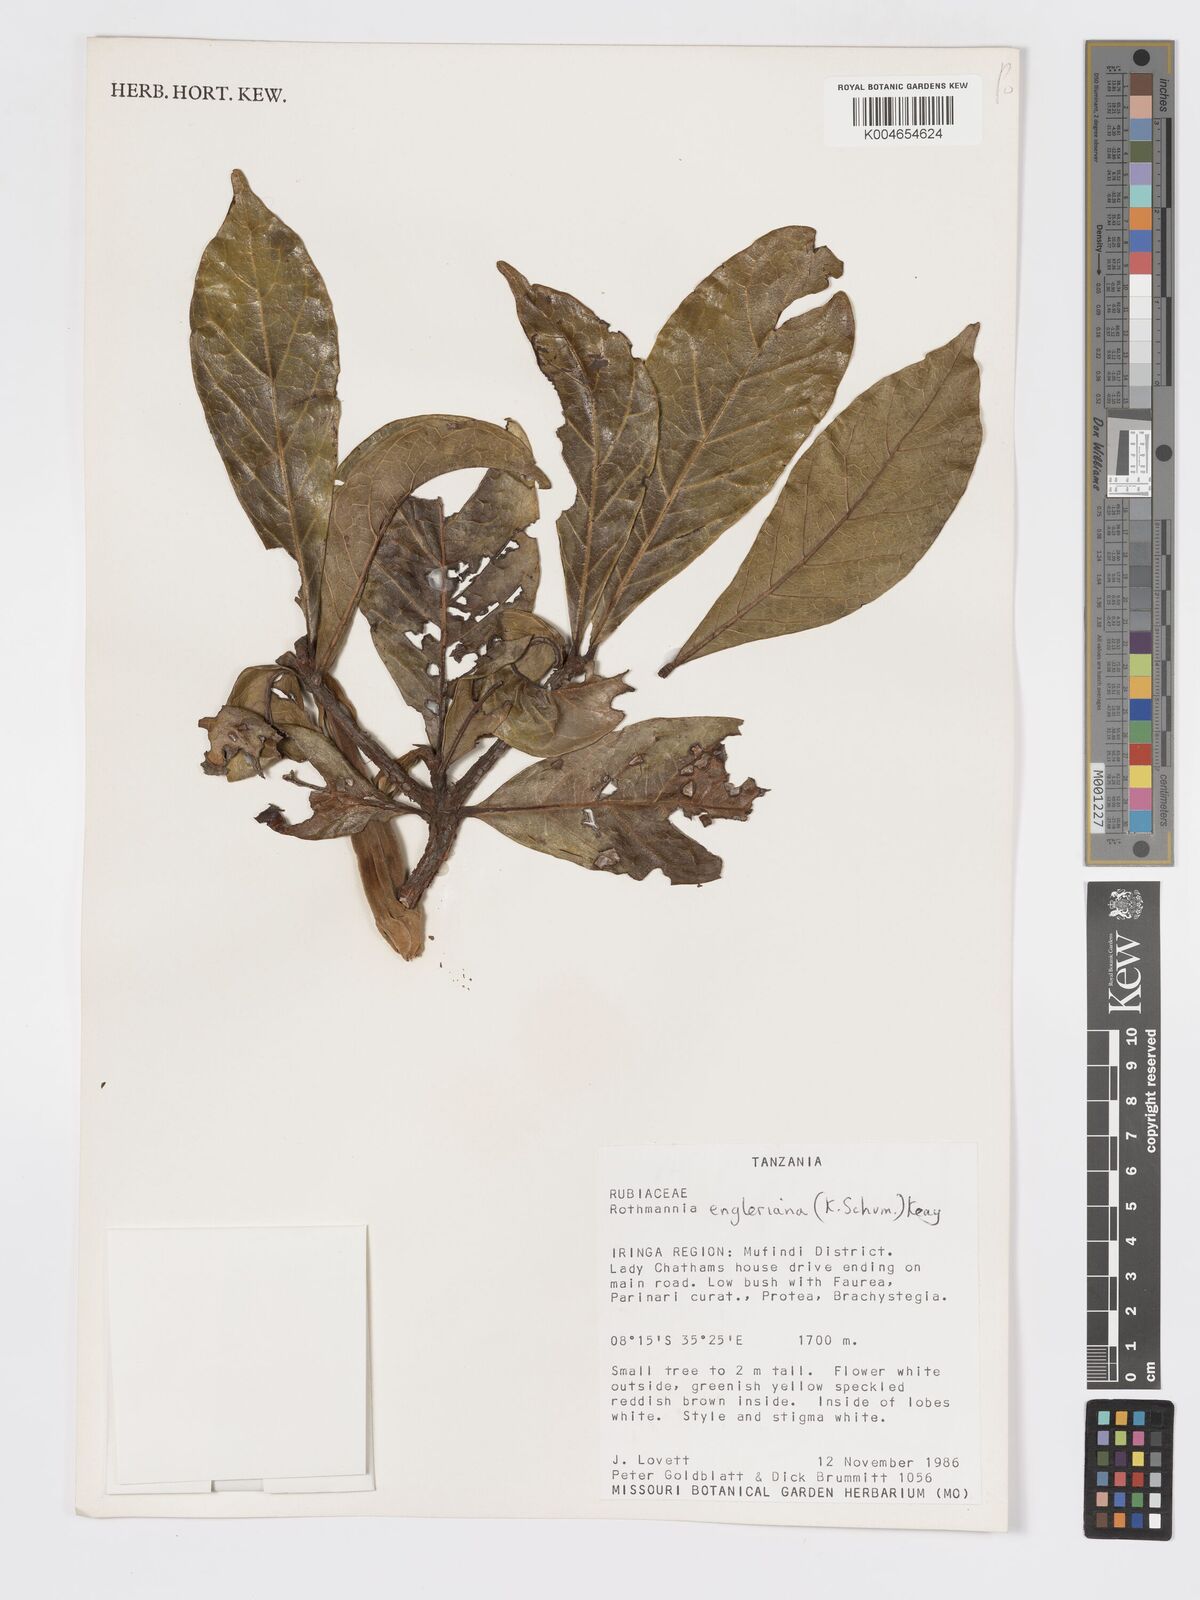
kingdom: Plantae
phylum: Tracheophyta
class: Magnoliopsida
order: Gentianales
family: Rubiaceae
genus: Rothmannia
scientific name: Rothmannia engleriana
